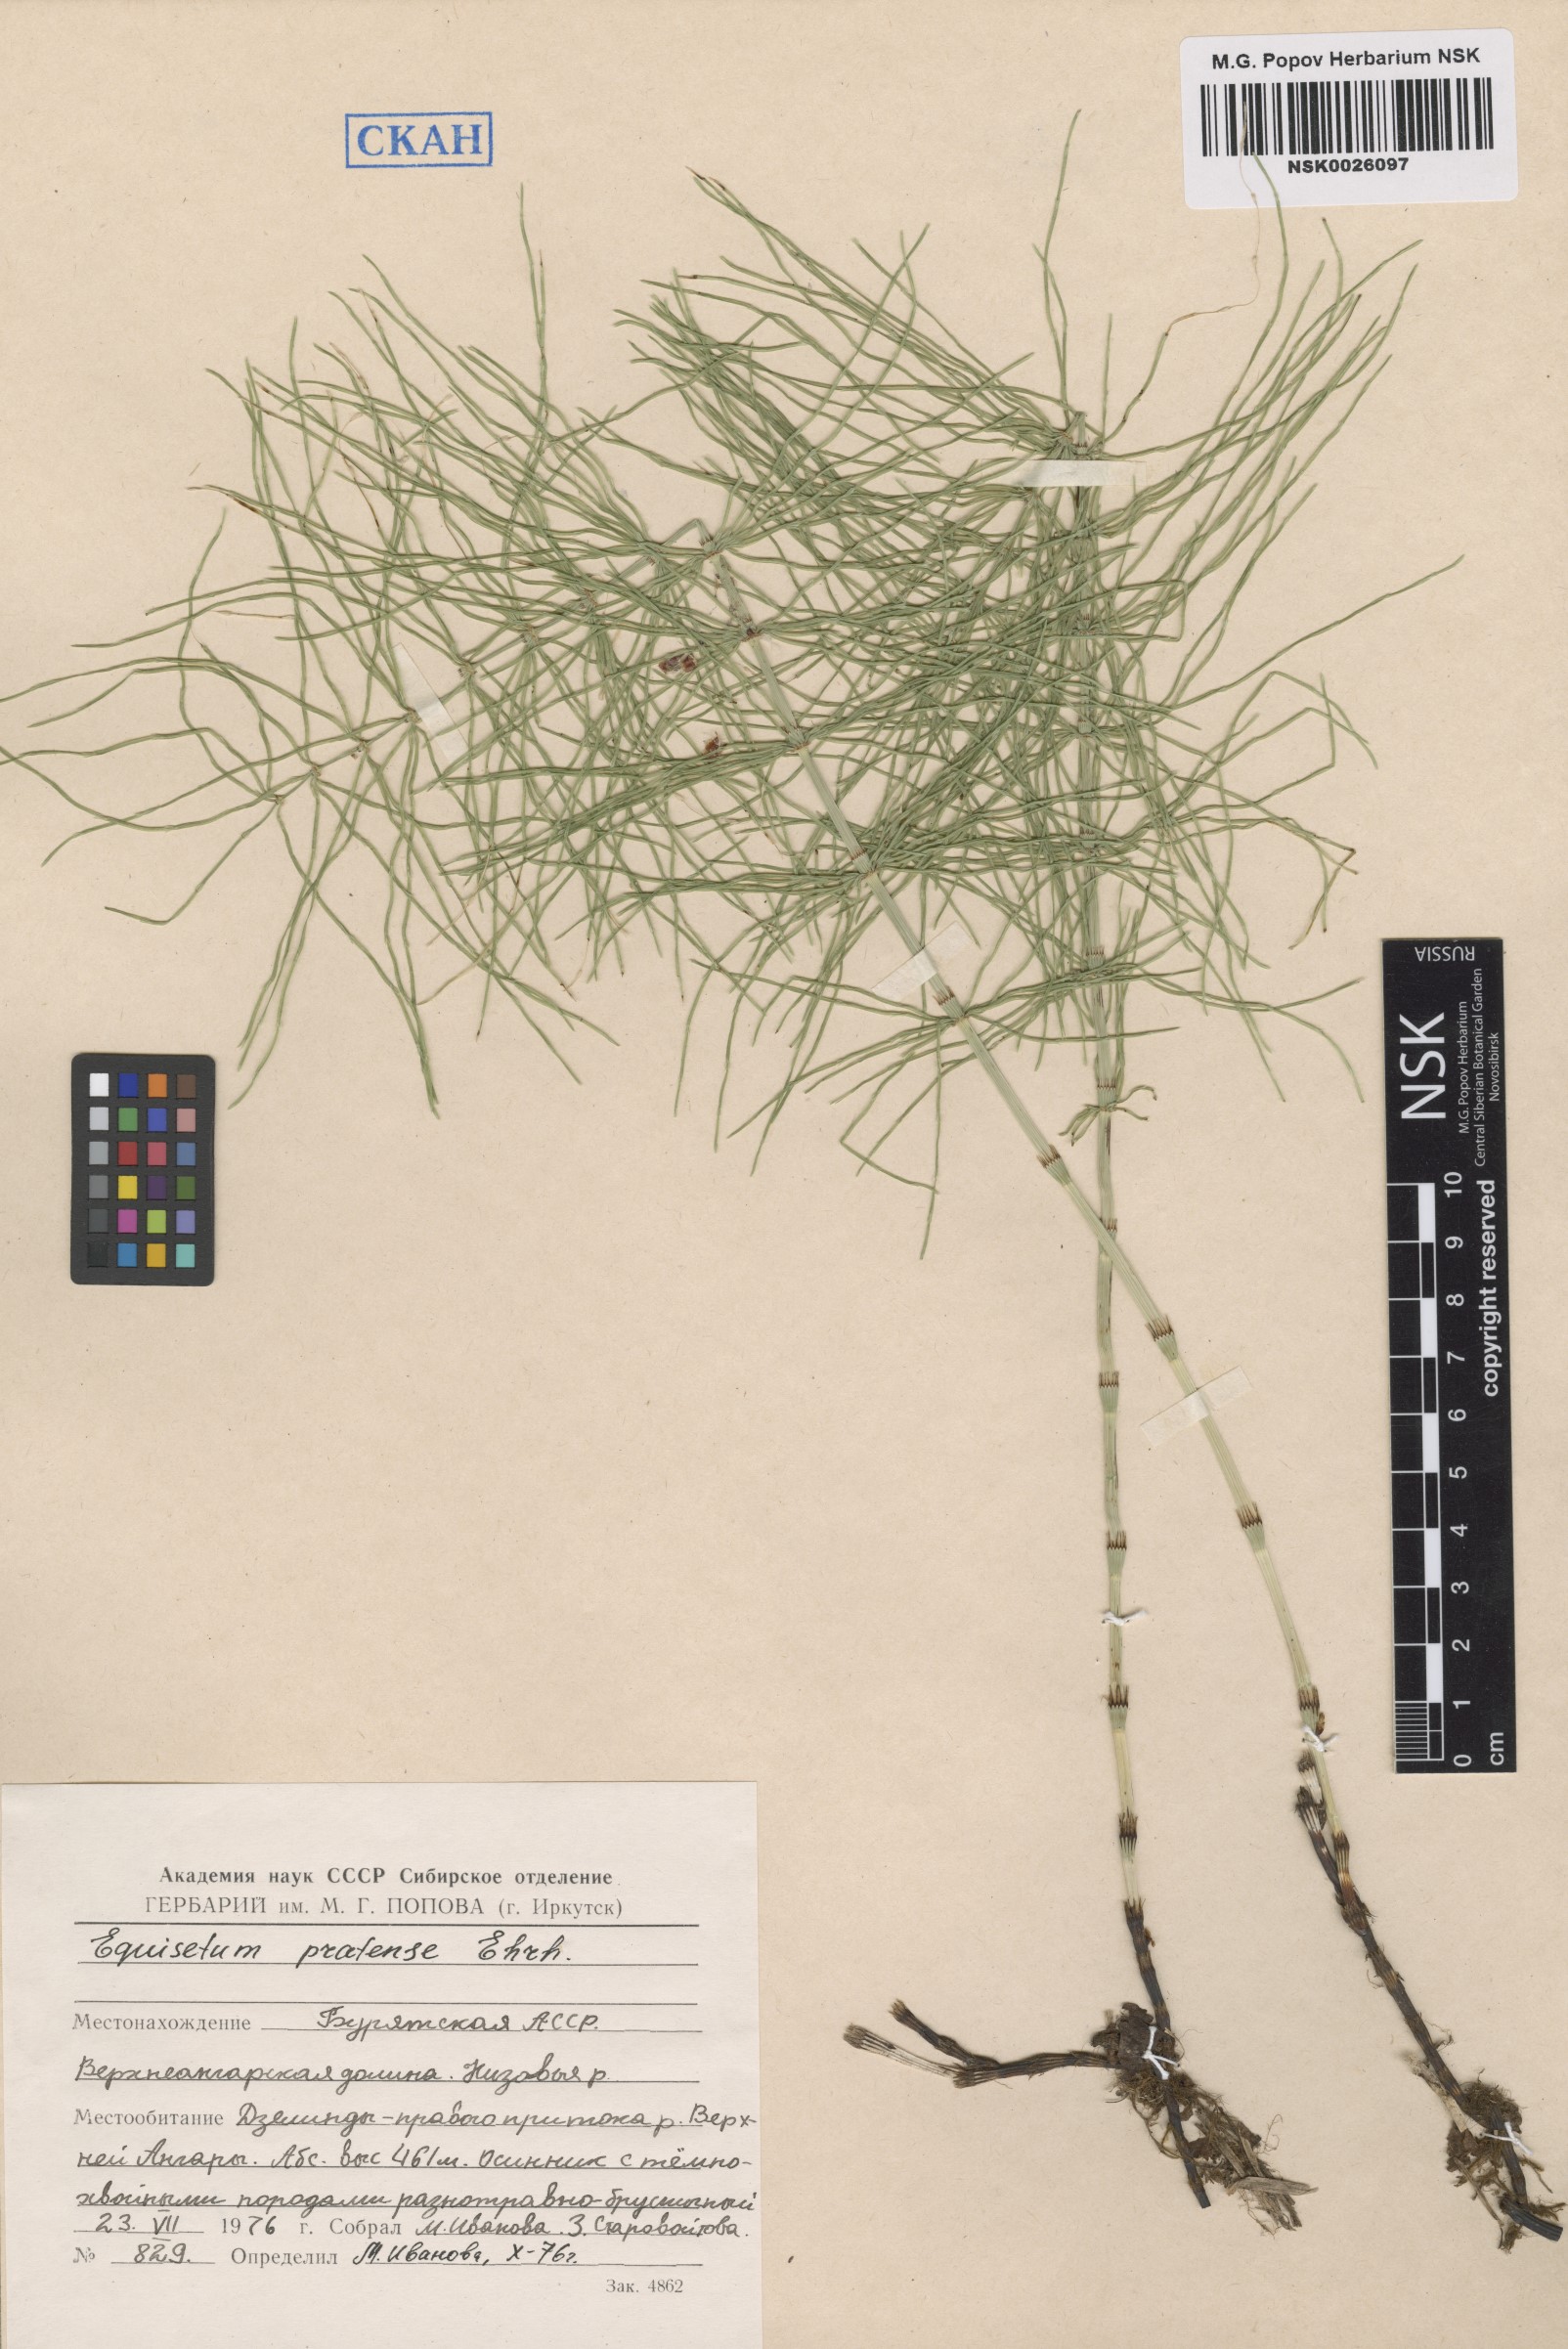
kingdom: Plantae
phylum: Tracheophyta
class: Polypodiopsida
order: Equisetales
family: Equisetaceae
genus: Equisetum
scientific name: Equisetum pratense
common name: Meadow horsetail
